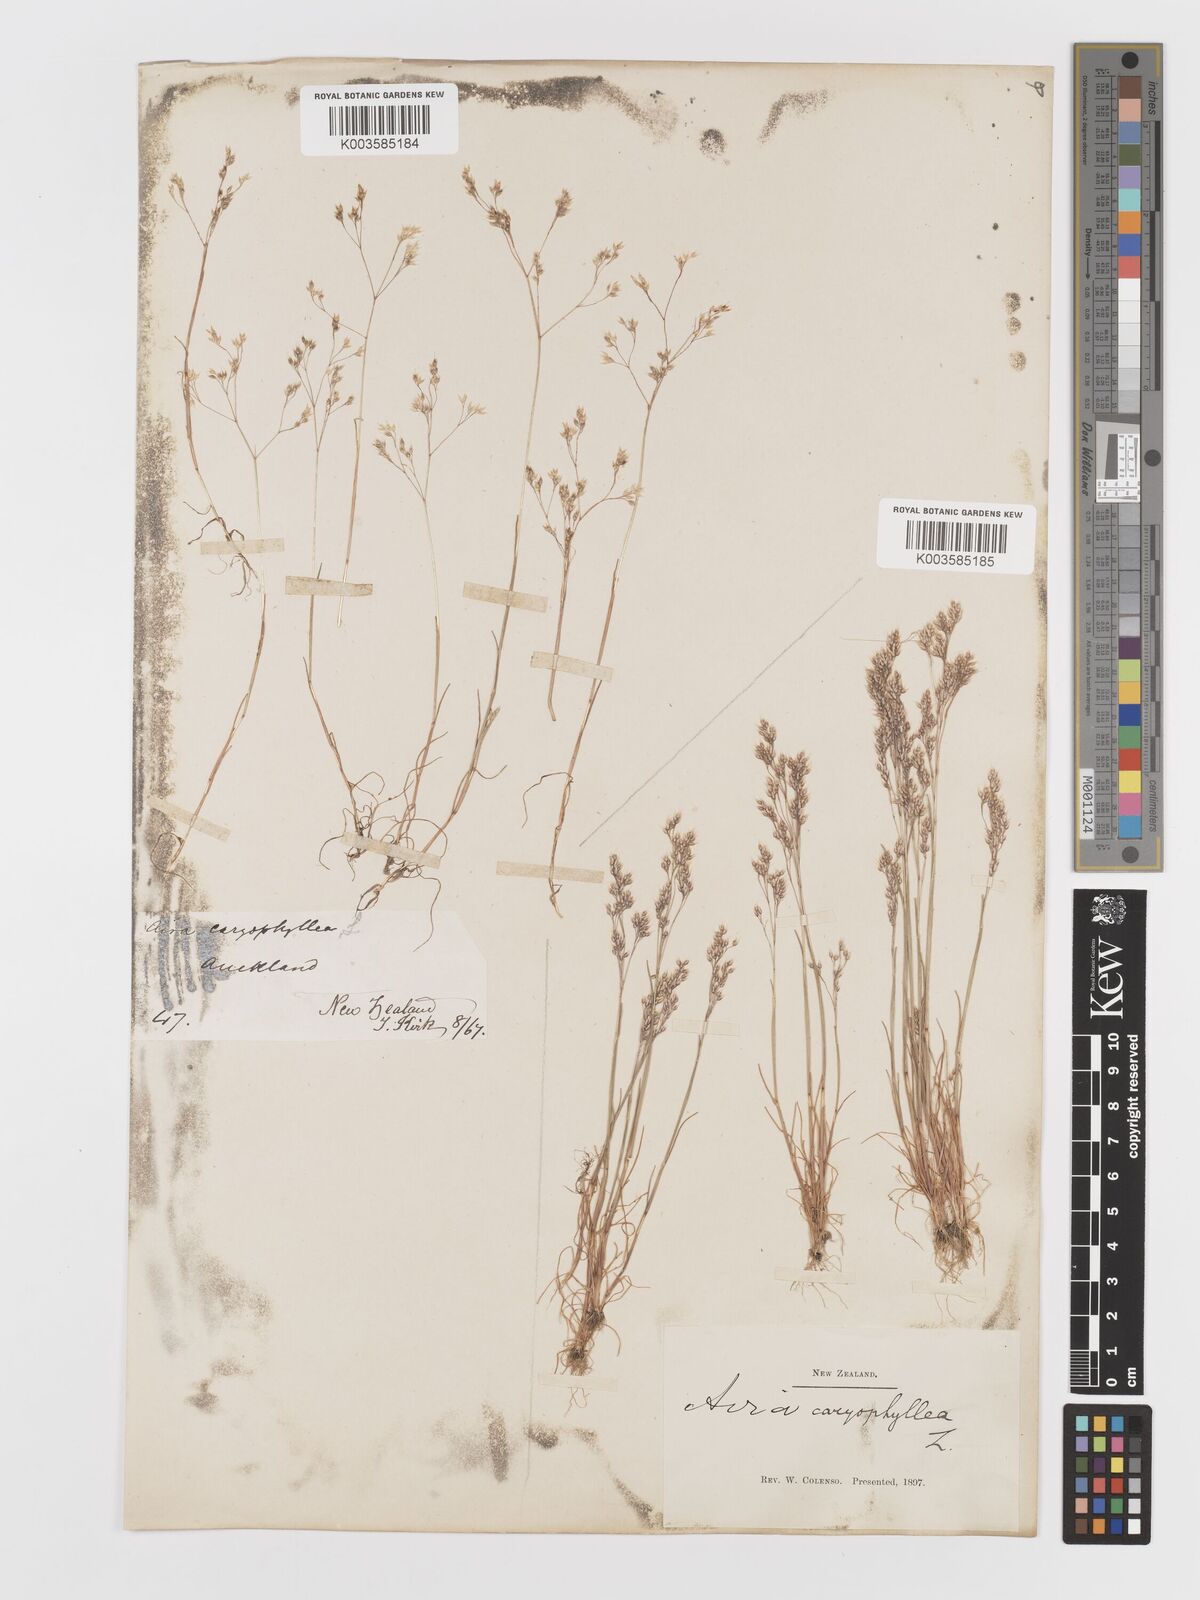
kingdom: Plantae
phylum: Tracheophyta
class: Liliopsida
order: Poales
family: Poaceae
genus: Aira
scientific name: Aira cupaniana
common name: Silver hairgrass
